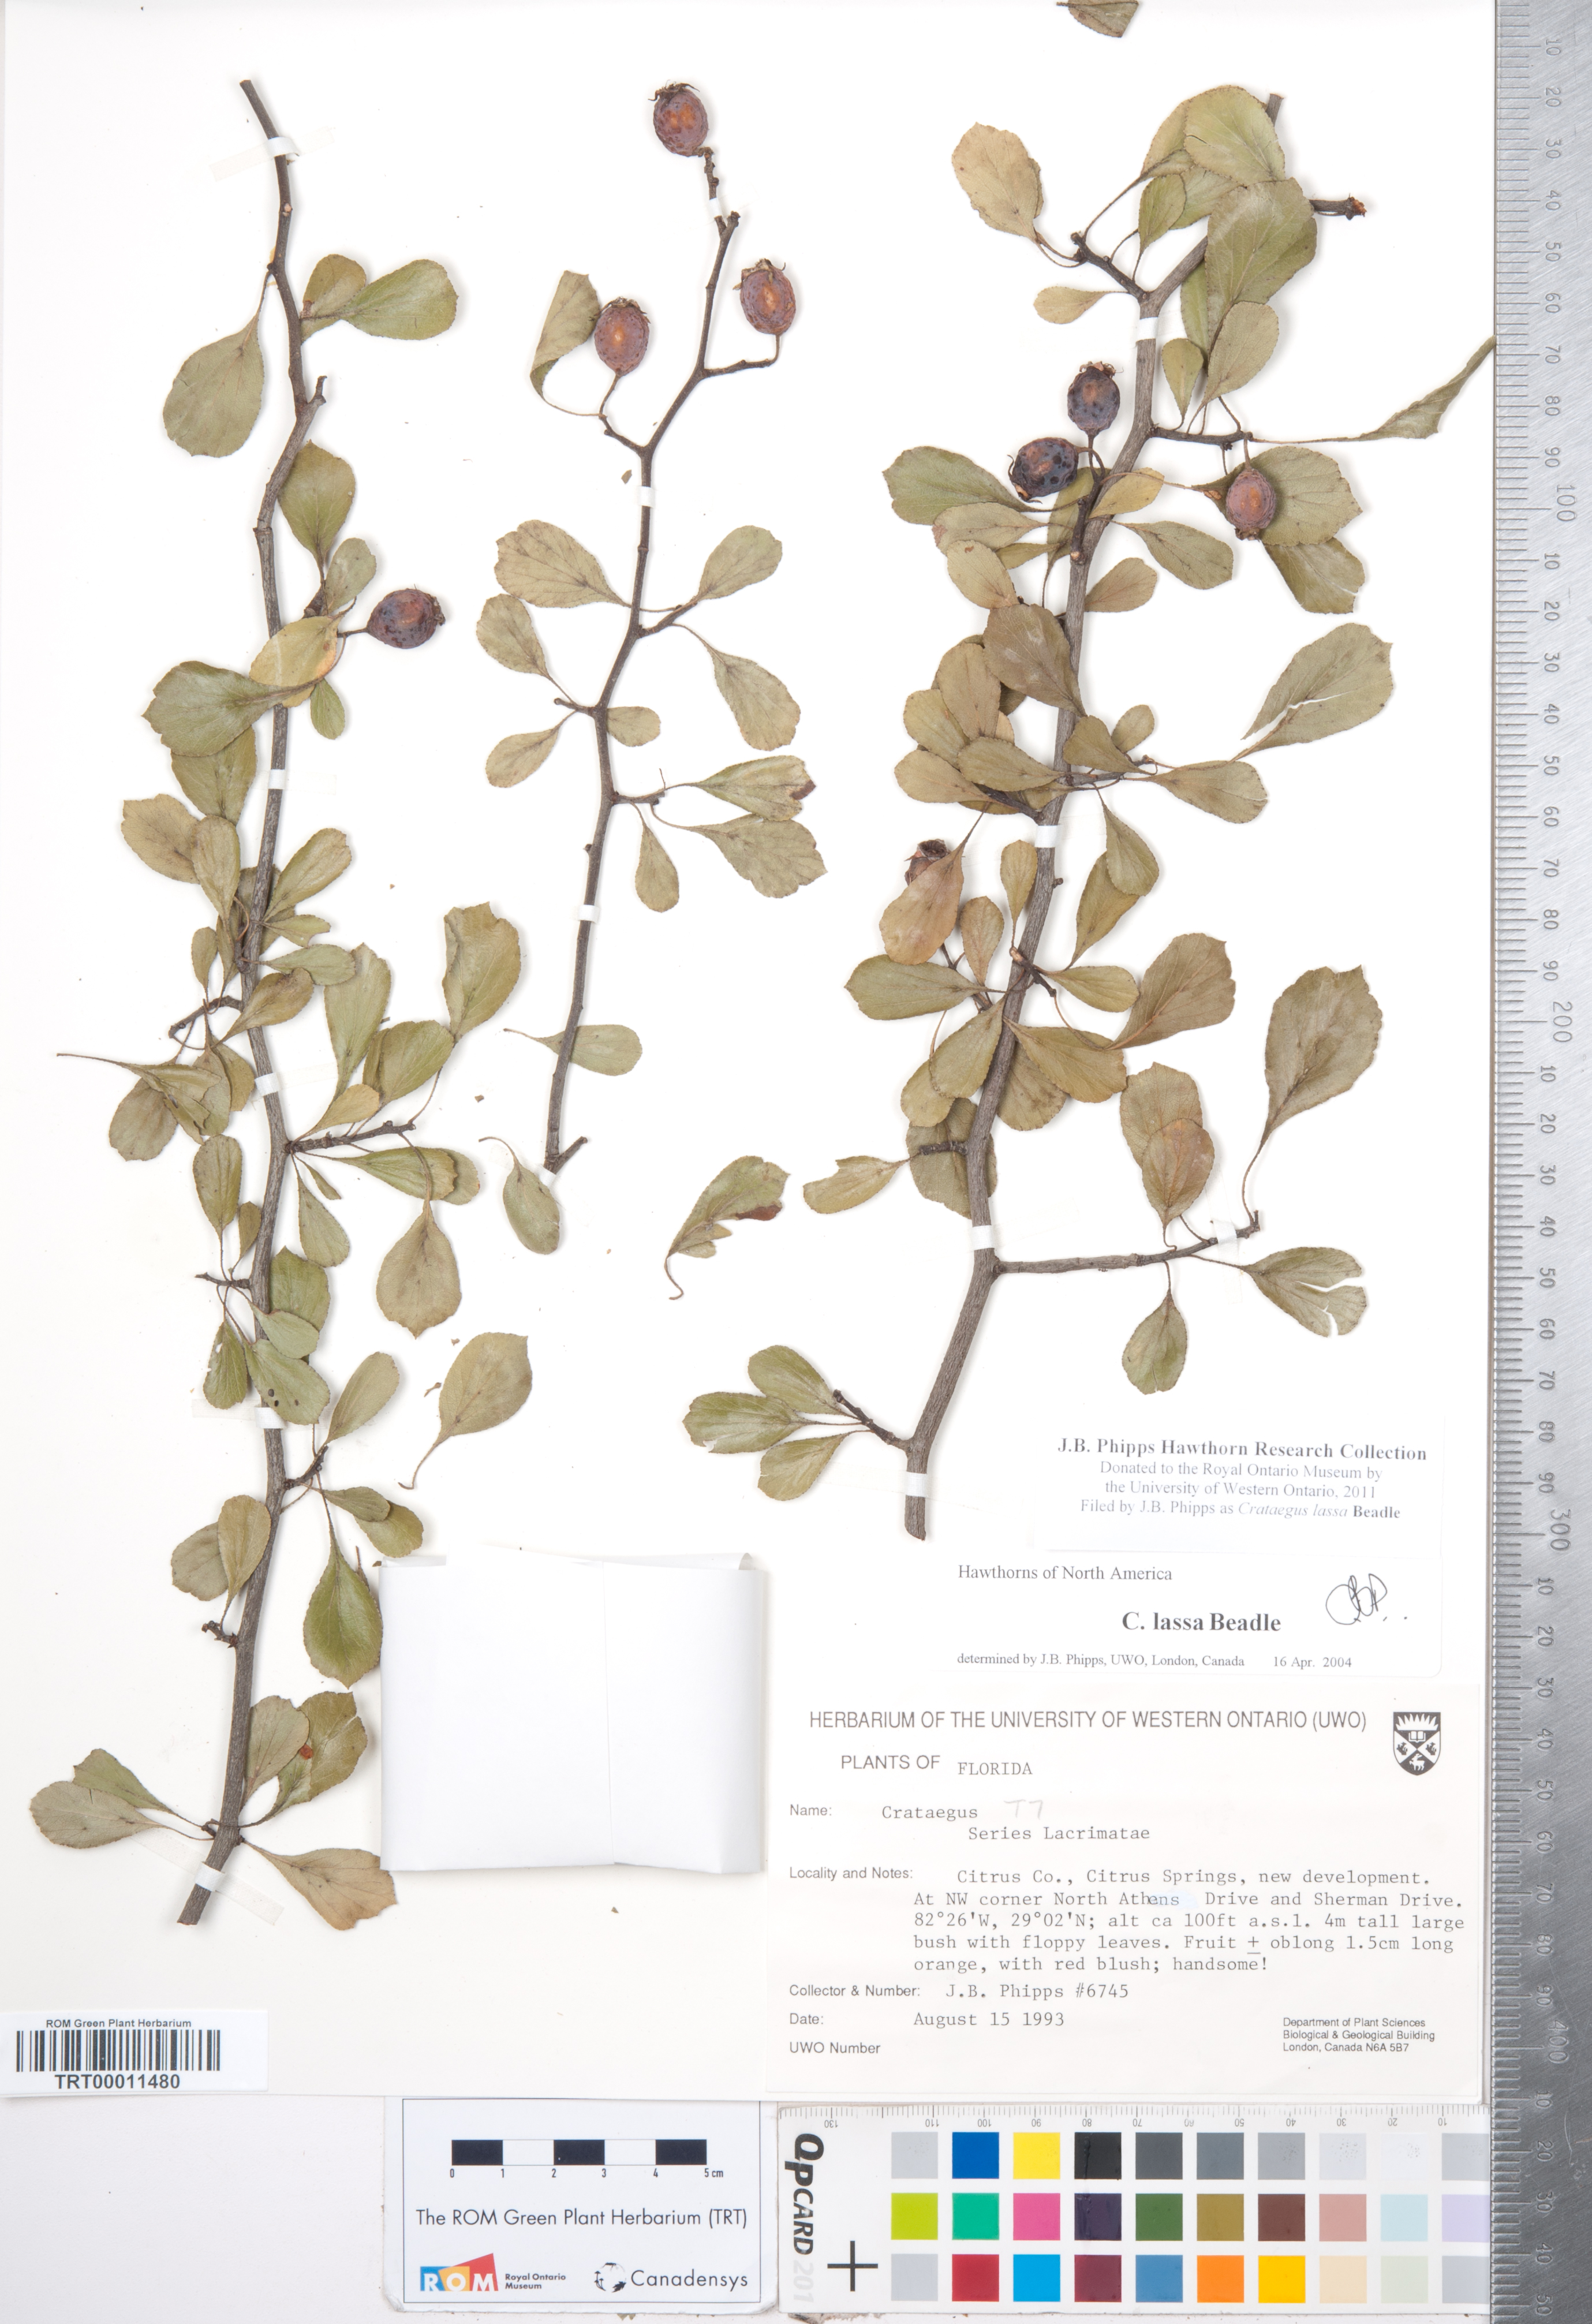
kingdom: Plantae
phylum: Tracheophyta
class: Magnoliopsida
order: Rosales
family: Rosaceae
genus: Crataegus
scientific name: Crataegus lassa
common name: Florida hawthorn
